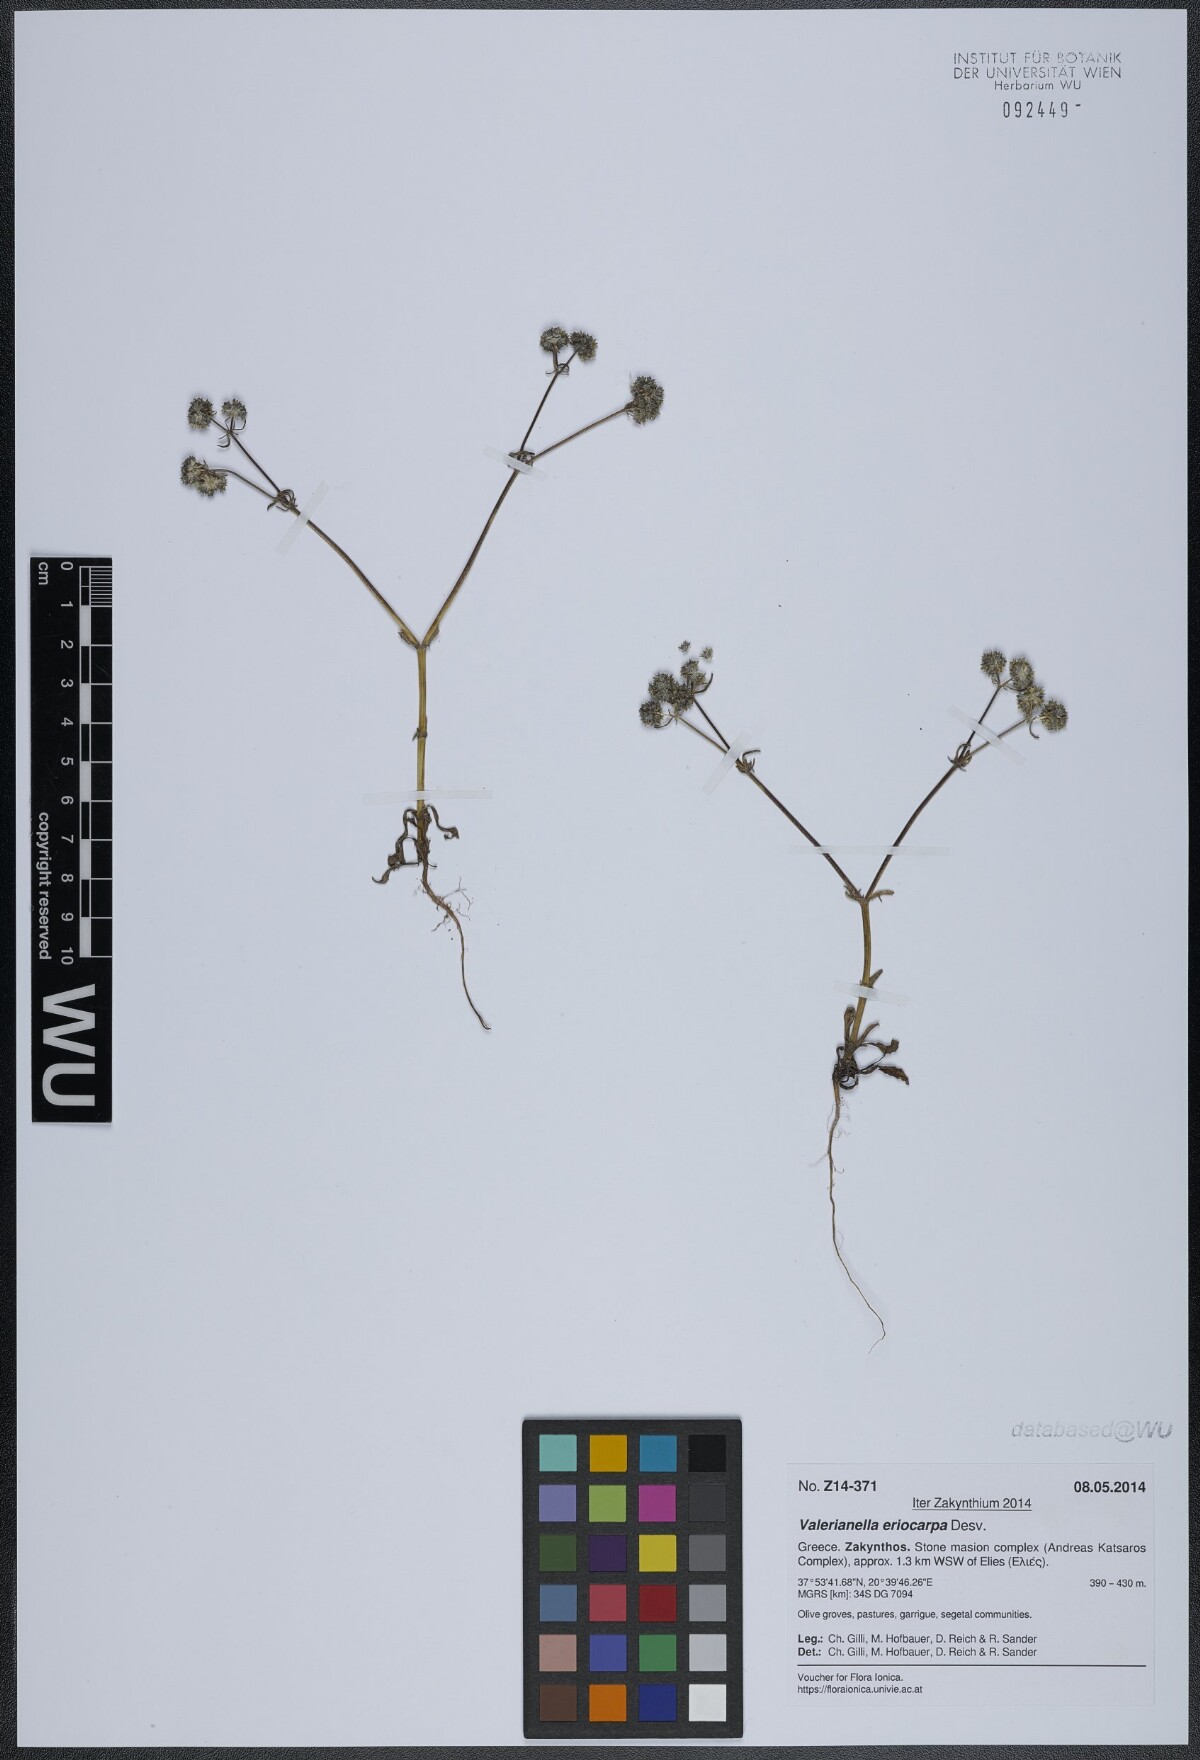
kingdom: Plantae
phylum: Tracheophyta
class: Magnoliopsida
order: Dipsacales
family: Caprifoliaceae
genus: Valerianella
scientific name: Valerianella eriocarpa
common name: Hairy-fruited cornsalad
